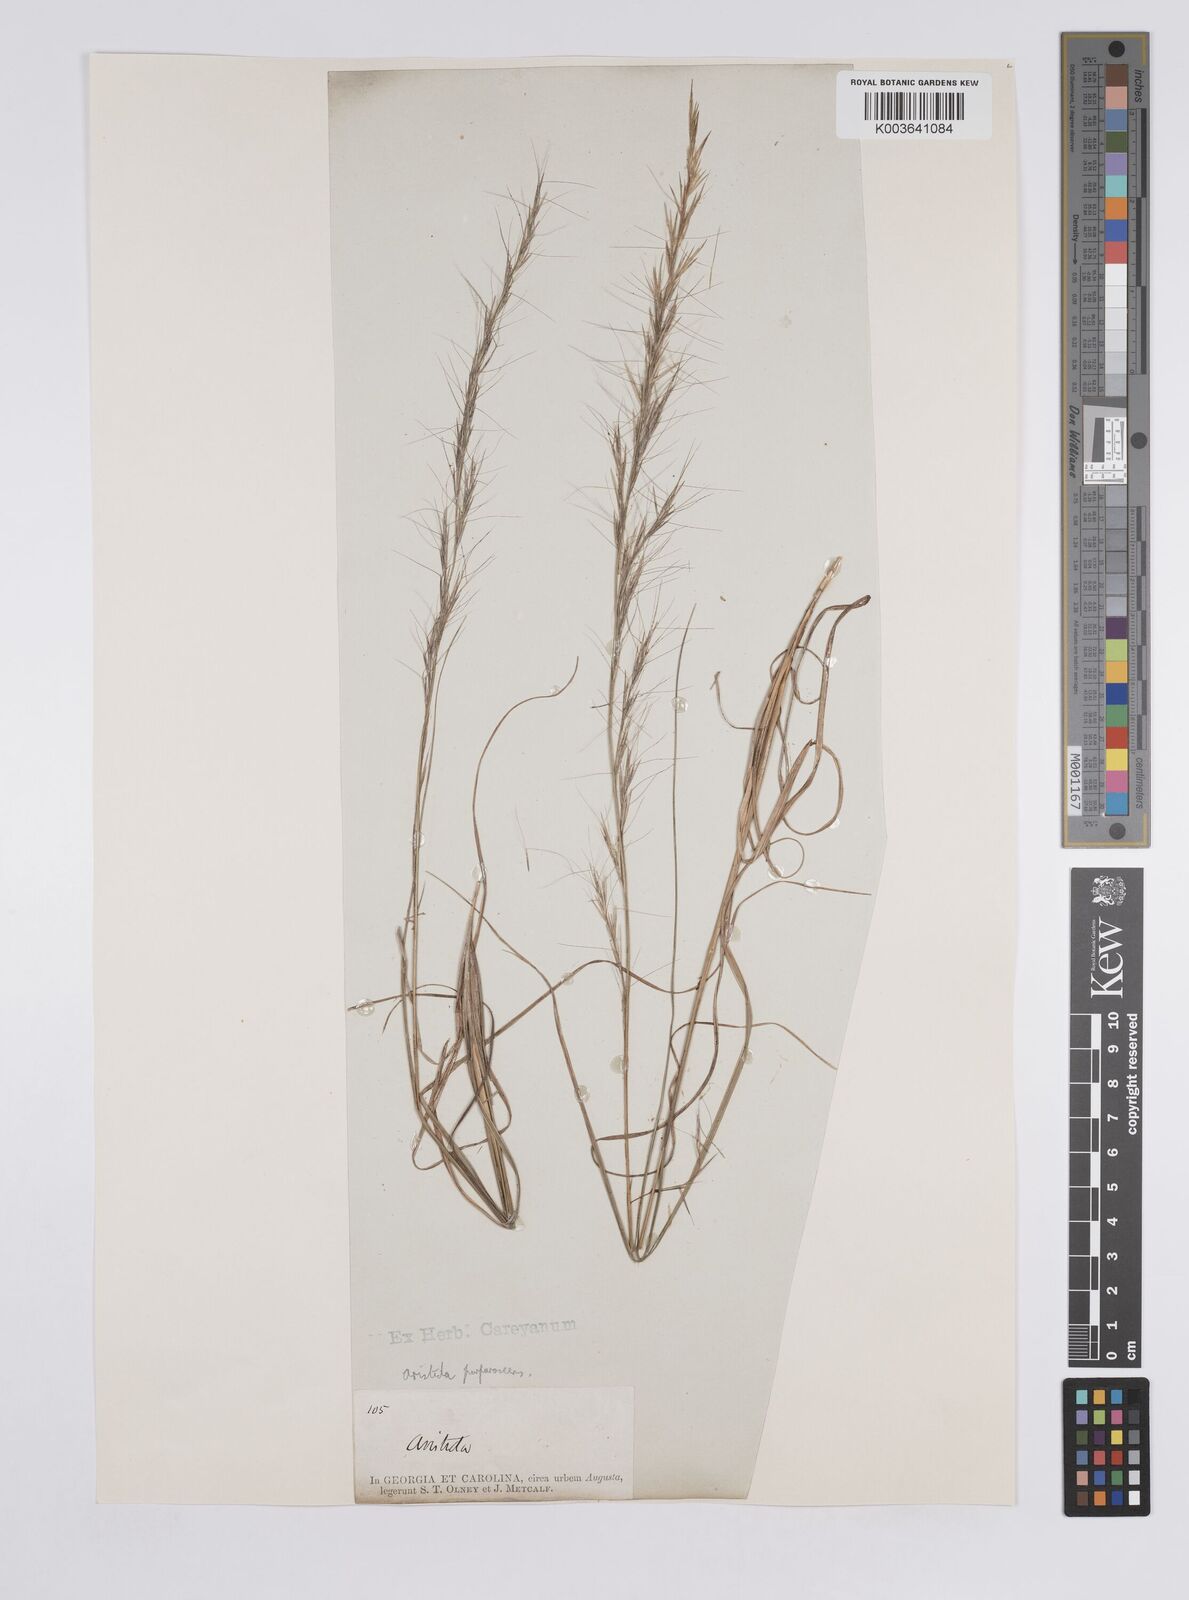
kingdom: Plantae
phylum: Tracheophyta
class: Liliopsida
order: Poales
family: Poaceae
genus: Aristida
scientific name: Aristida purpurascens
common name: Arrow-feather
